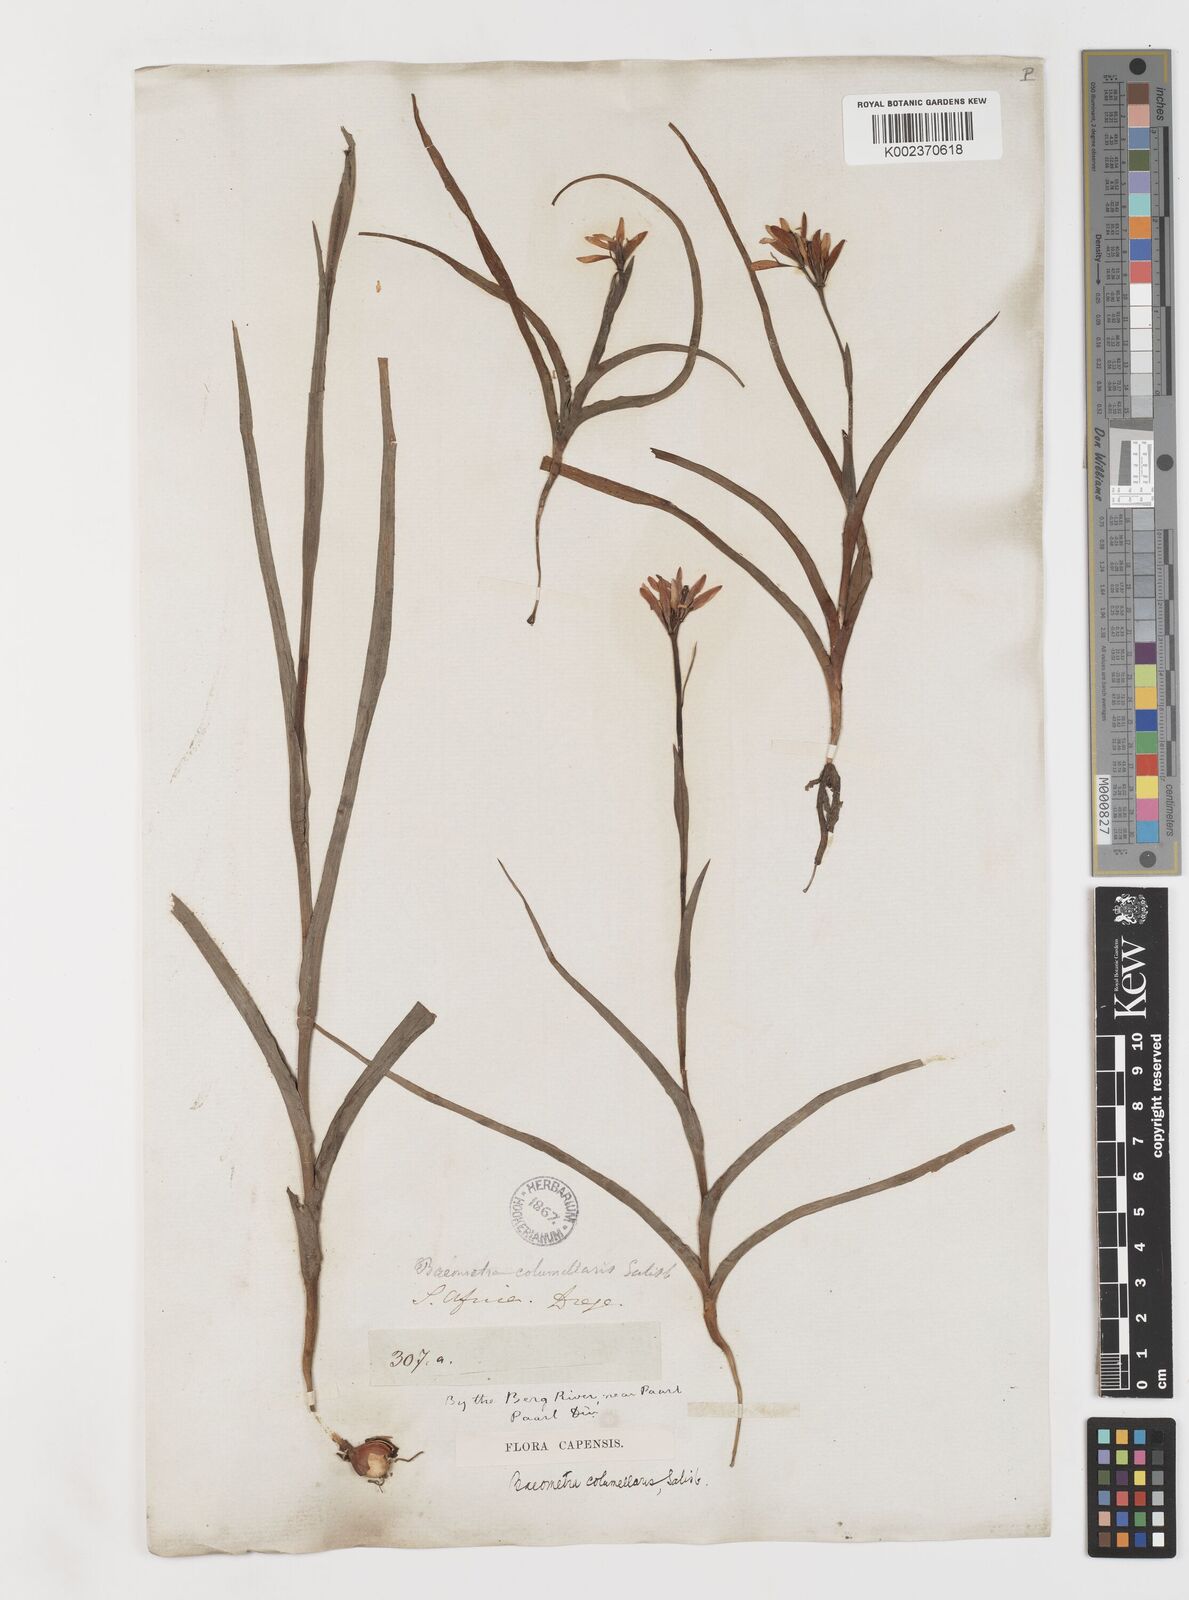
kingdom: Plantae
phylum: Tracheophyta
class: Liliopsida
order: Liliales
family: Colchicaceae
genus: Baeometra
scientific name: Baeometra uniflora
